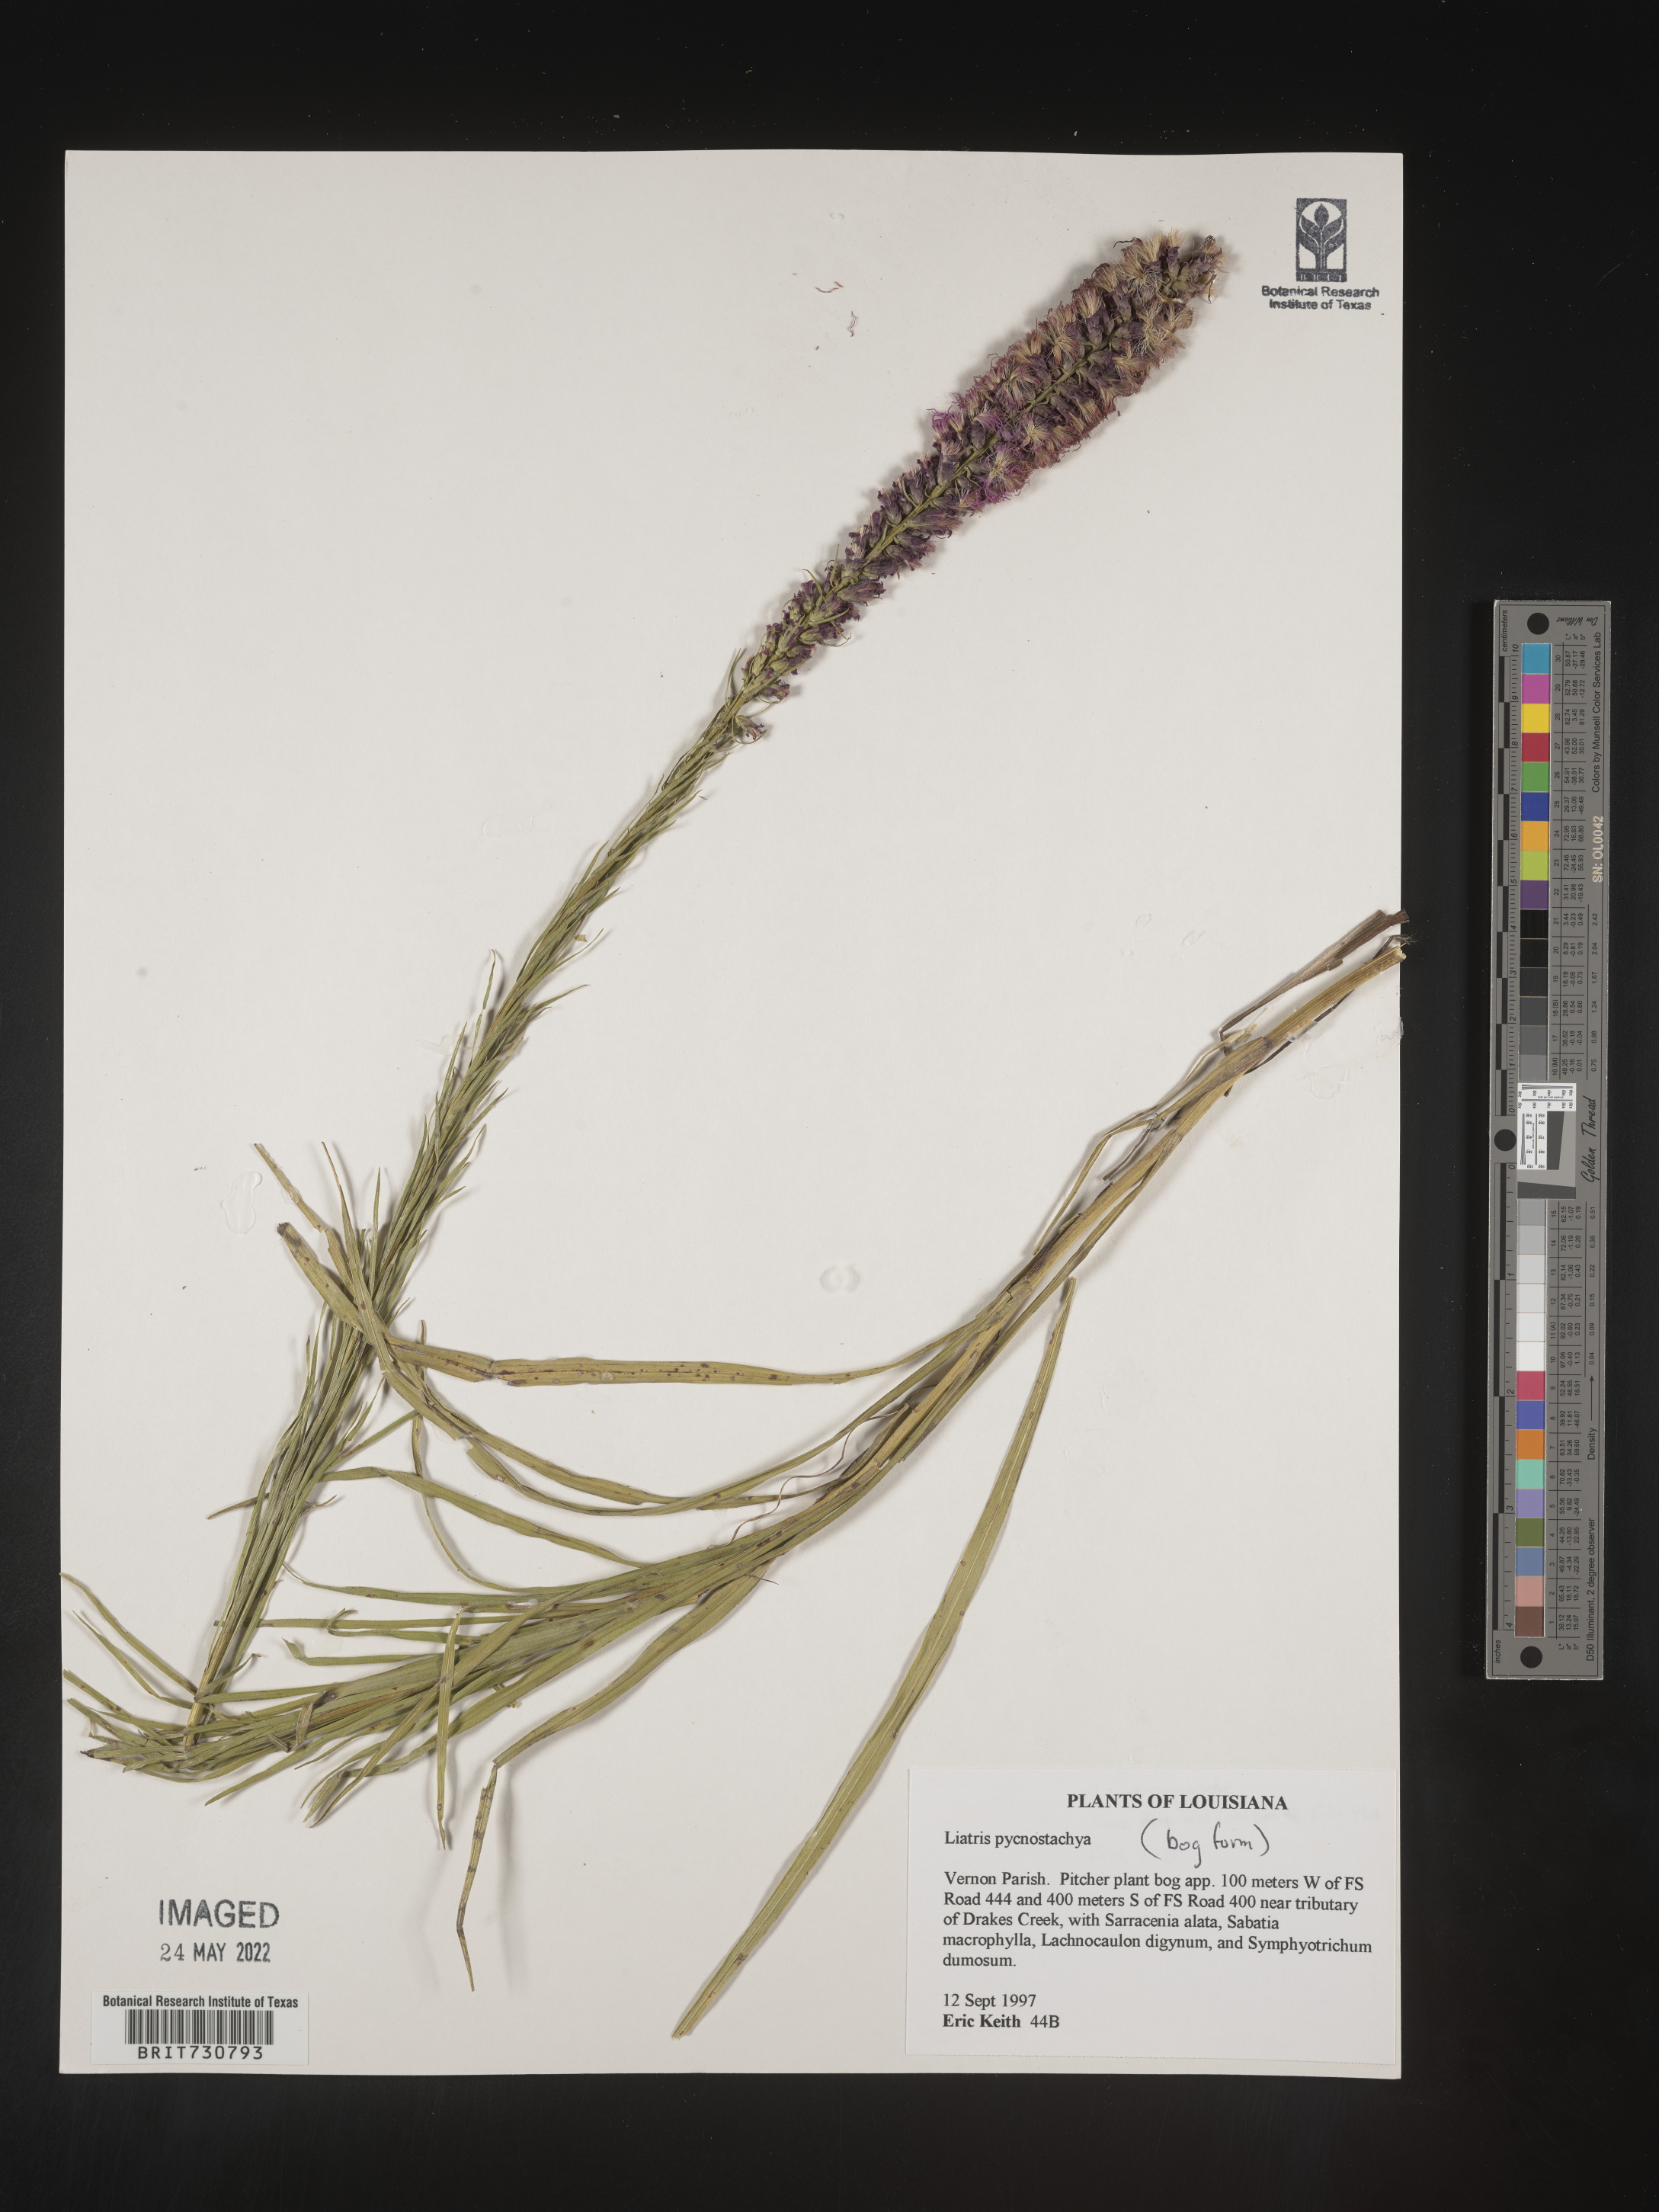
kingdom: Plantae
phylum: Tracheophyta
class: Magnoliopsida
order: Asterales
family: Asteraceae
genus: Liatris
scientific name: Liatris pycnostachya
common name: Cattail gayfeather
